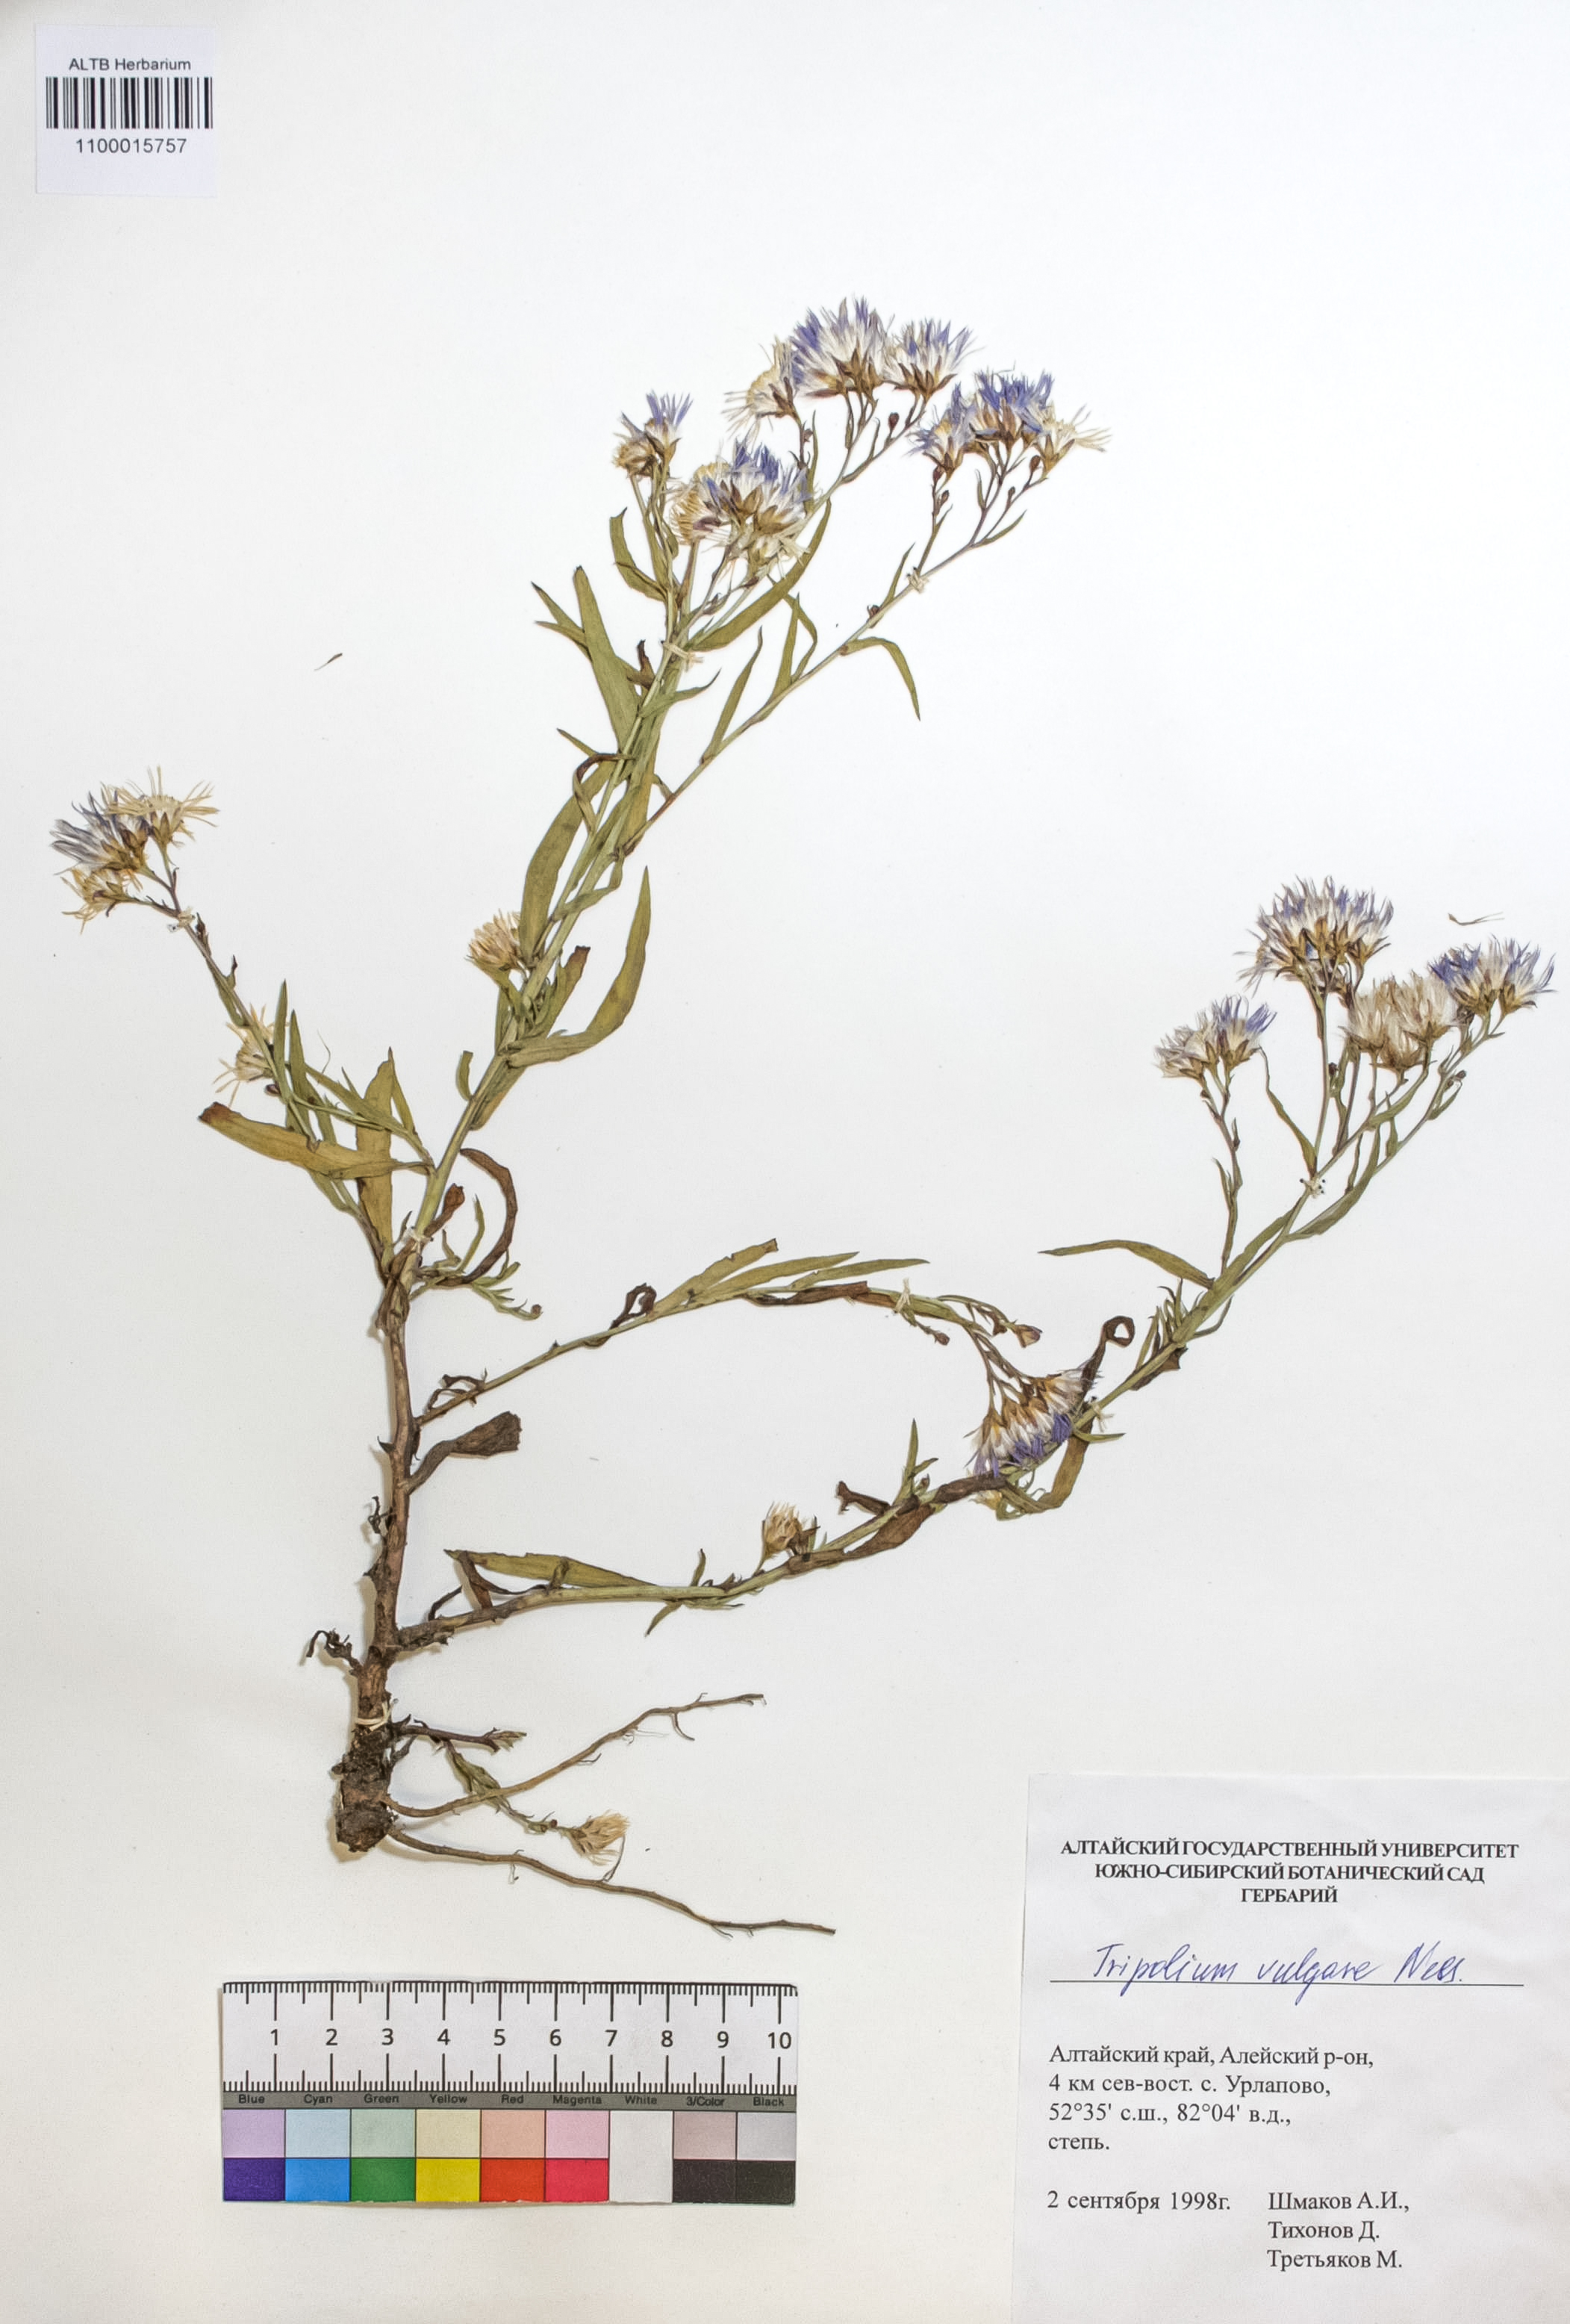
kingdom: Plantae
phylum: Tracheophyta
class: Magnoliopsida
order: Asterales
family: Asteraceae
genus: Tripolium
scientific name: Tripolium pannonicum
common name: Sea aster
